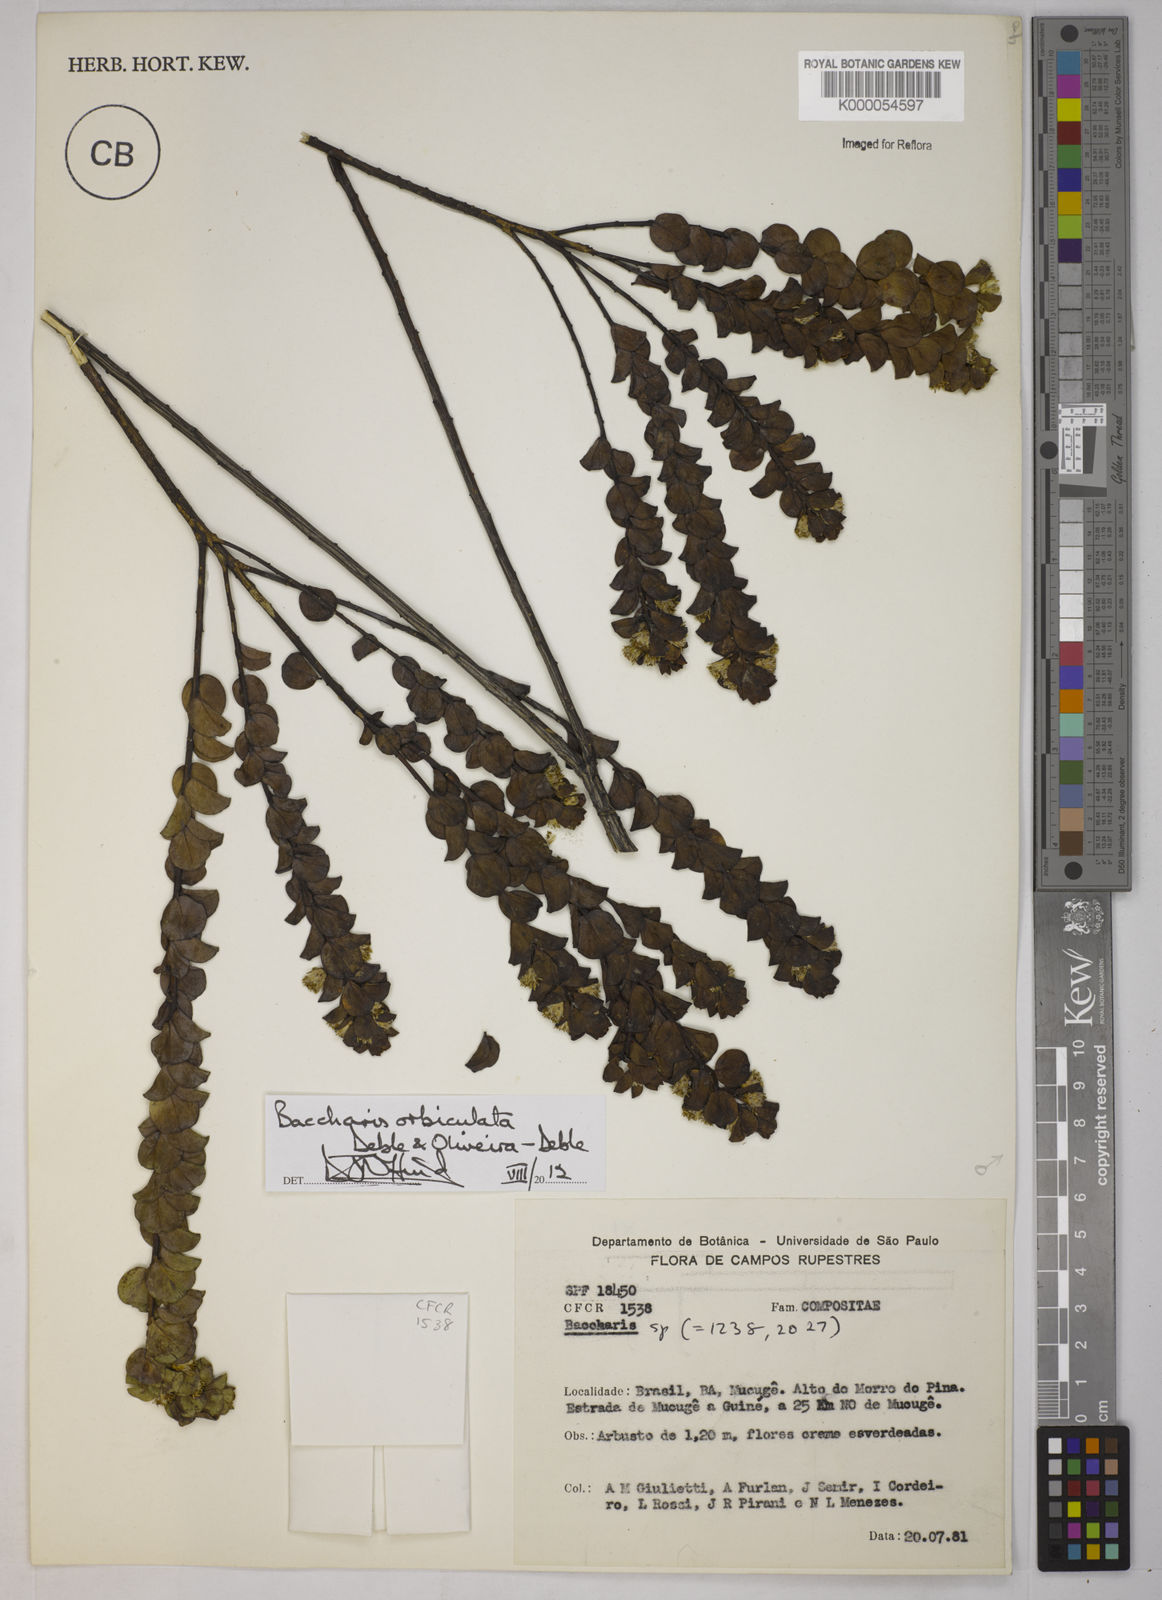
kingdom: Plantae
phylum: Tracheophyta
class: Magnoliopsida
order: Asterales
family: Asteraceae
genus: Baccharis
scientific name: Baccharis
